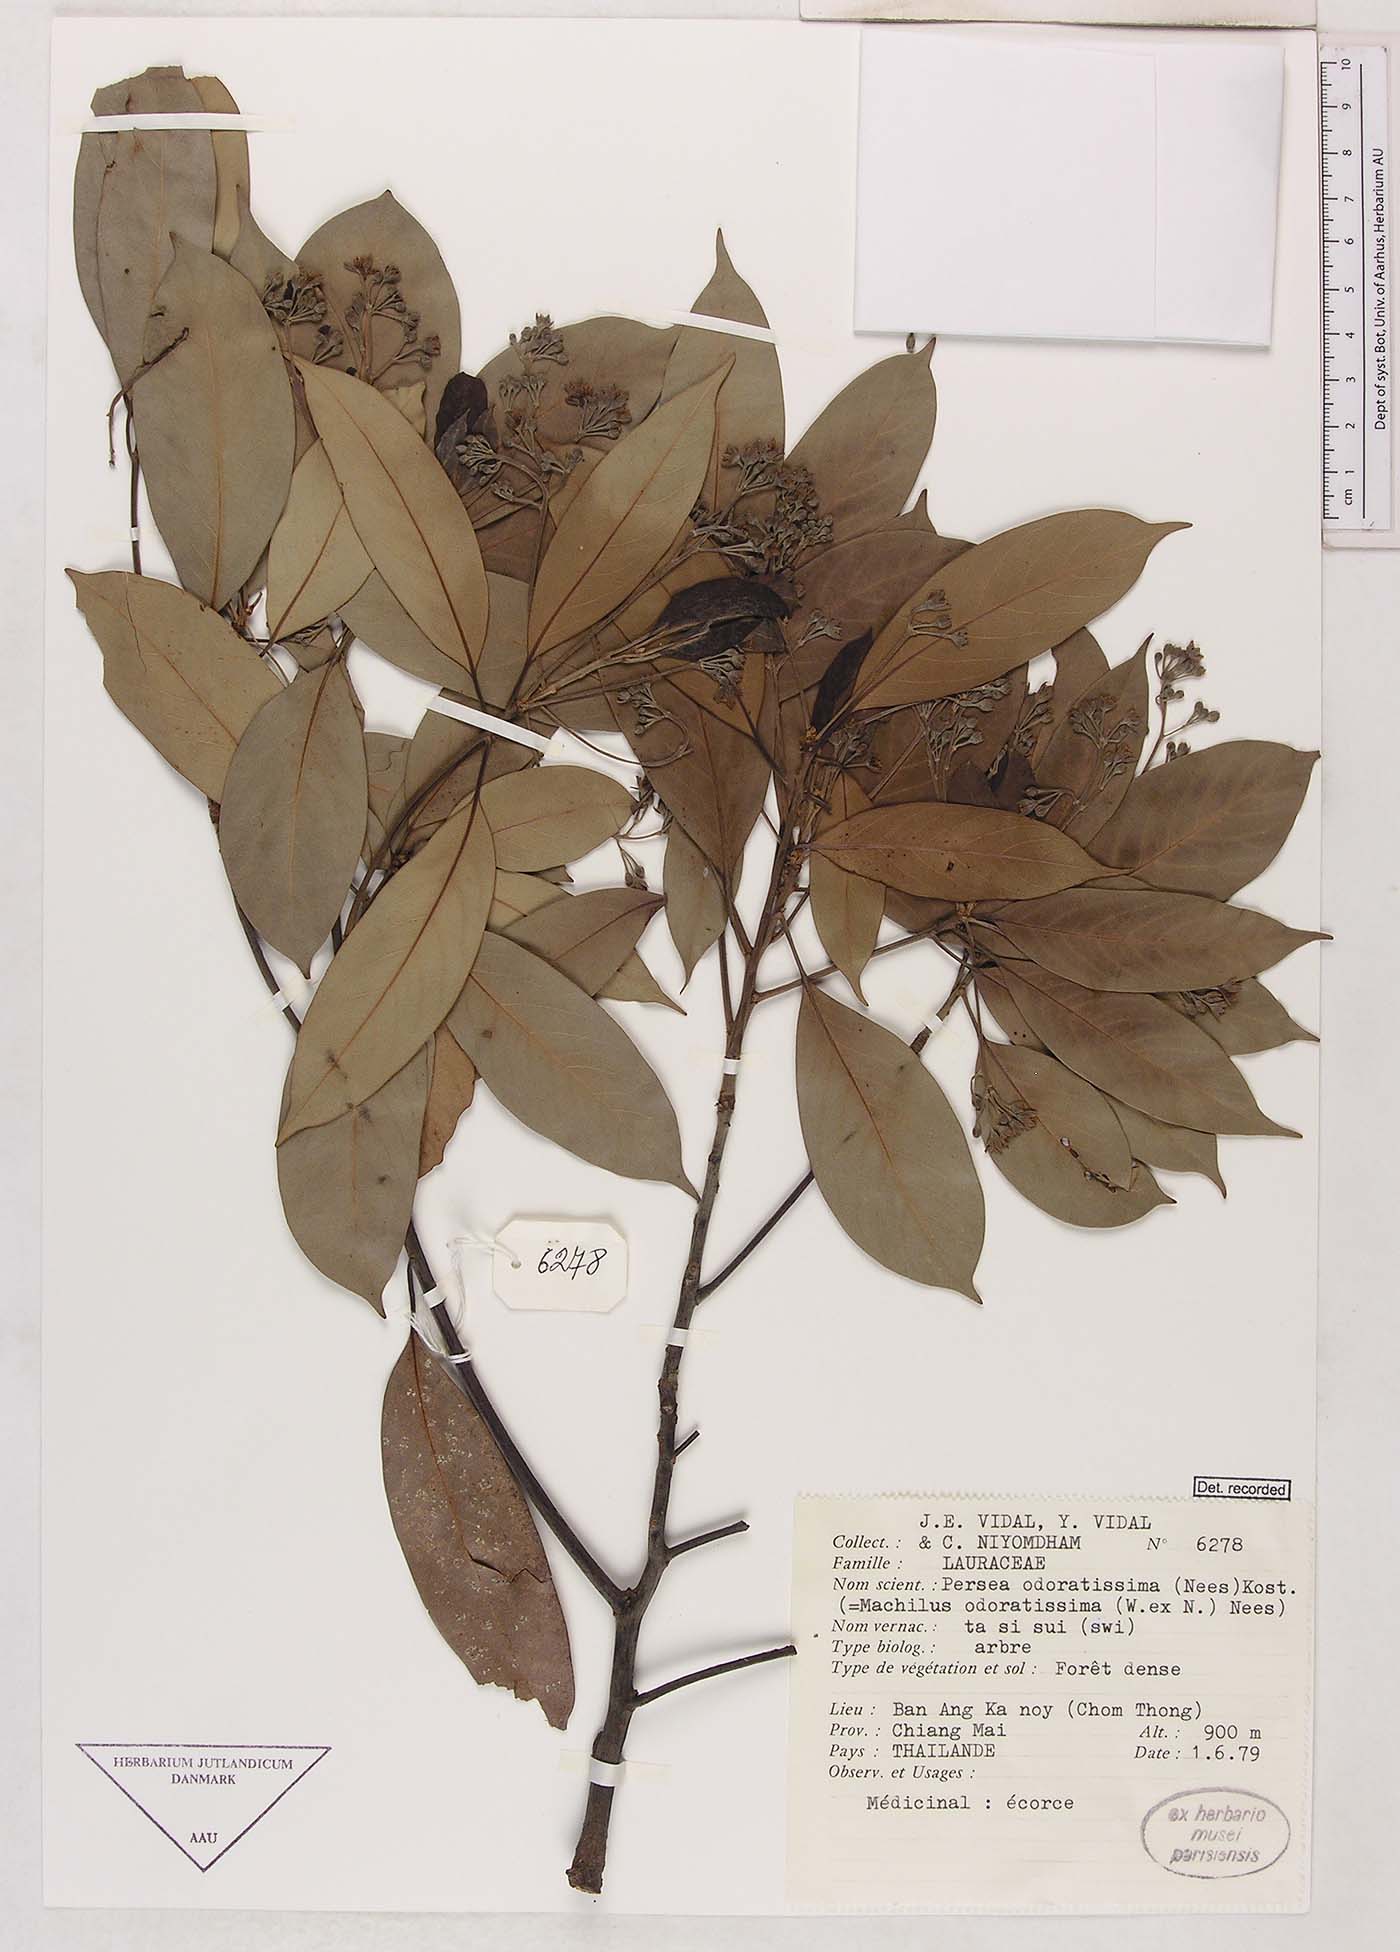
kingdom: Plantae
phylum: Tracheophyta
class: Magnoliopsida
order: Laurales
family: Lauraceae
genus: Machilus
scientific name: Machilus odoratissimus
